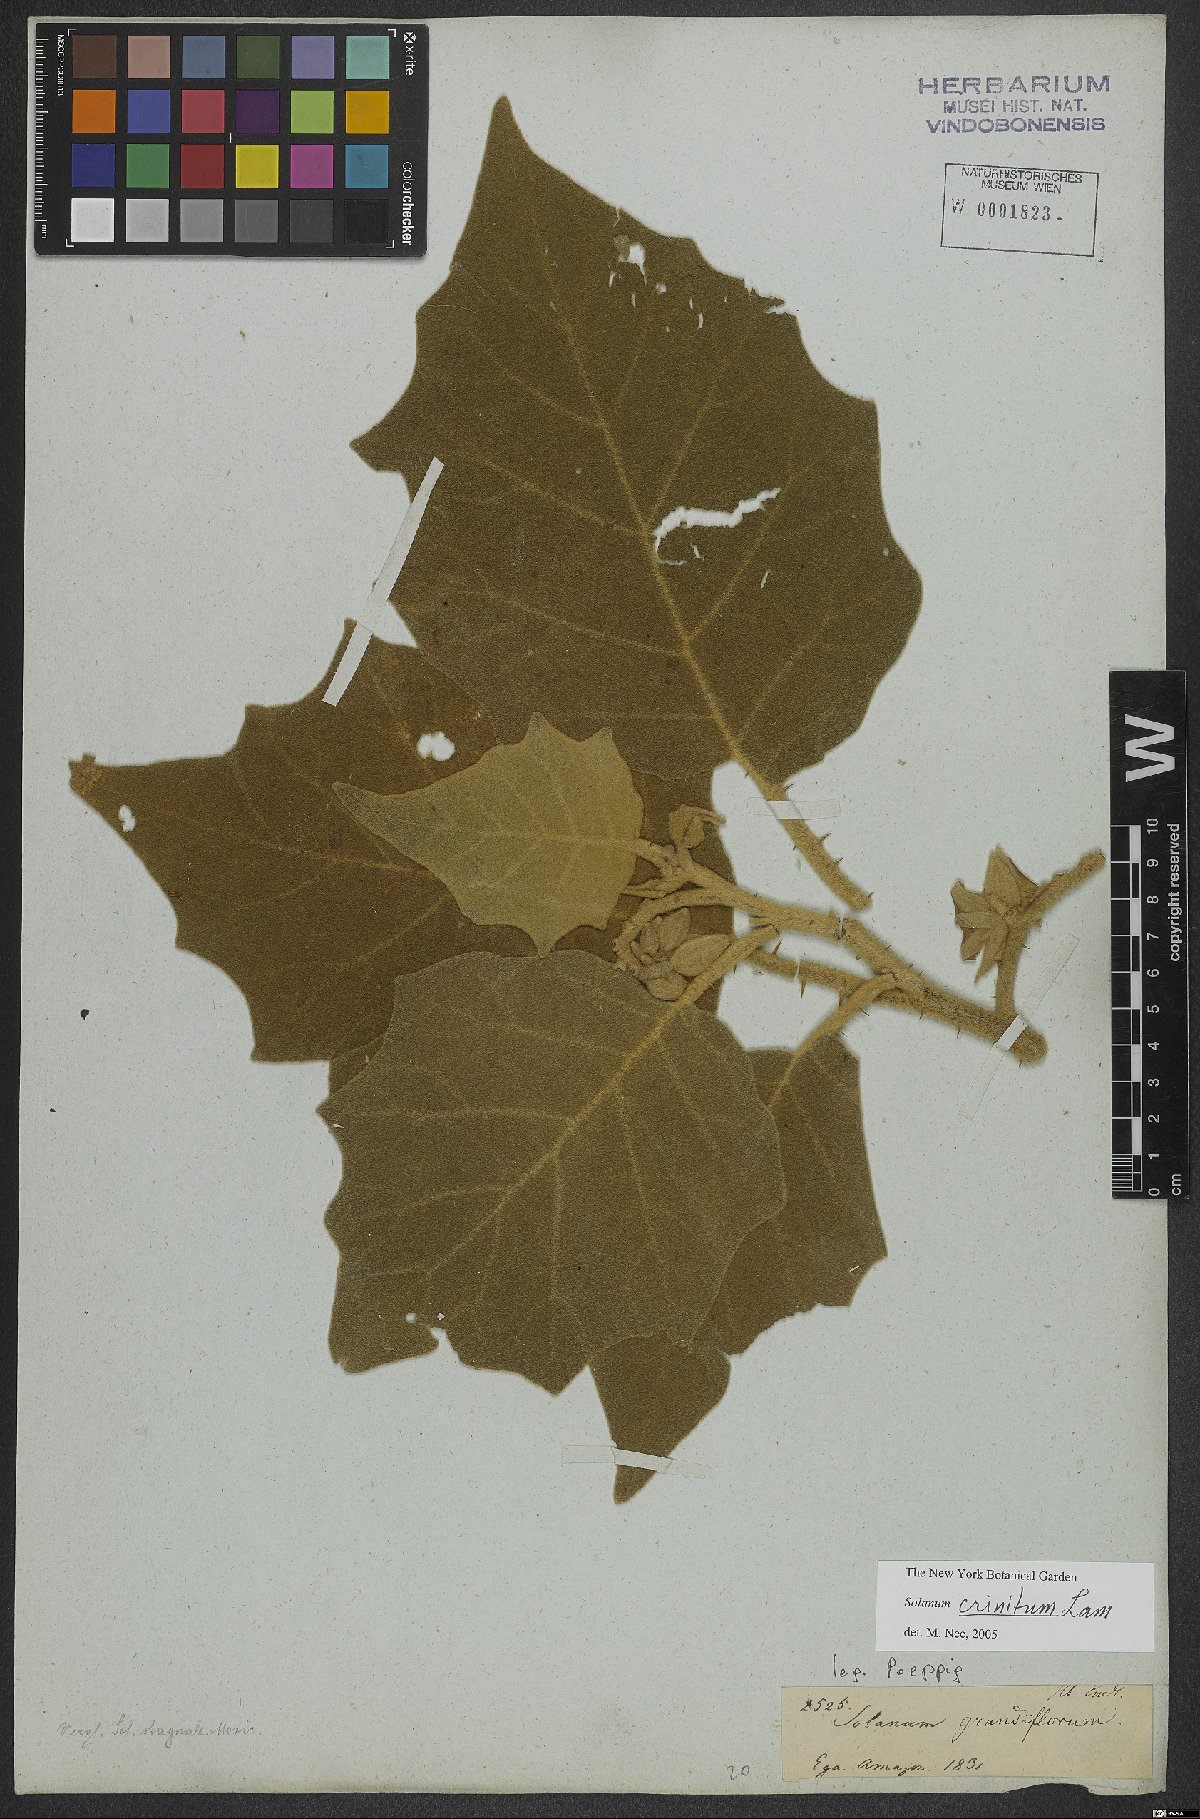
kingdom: Plantae
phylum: Tracheophyta
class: Magnoliopsida
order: Solanales
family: Solanaceae
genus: Solanum
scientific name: Solanum crinitum
